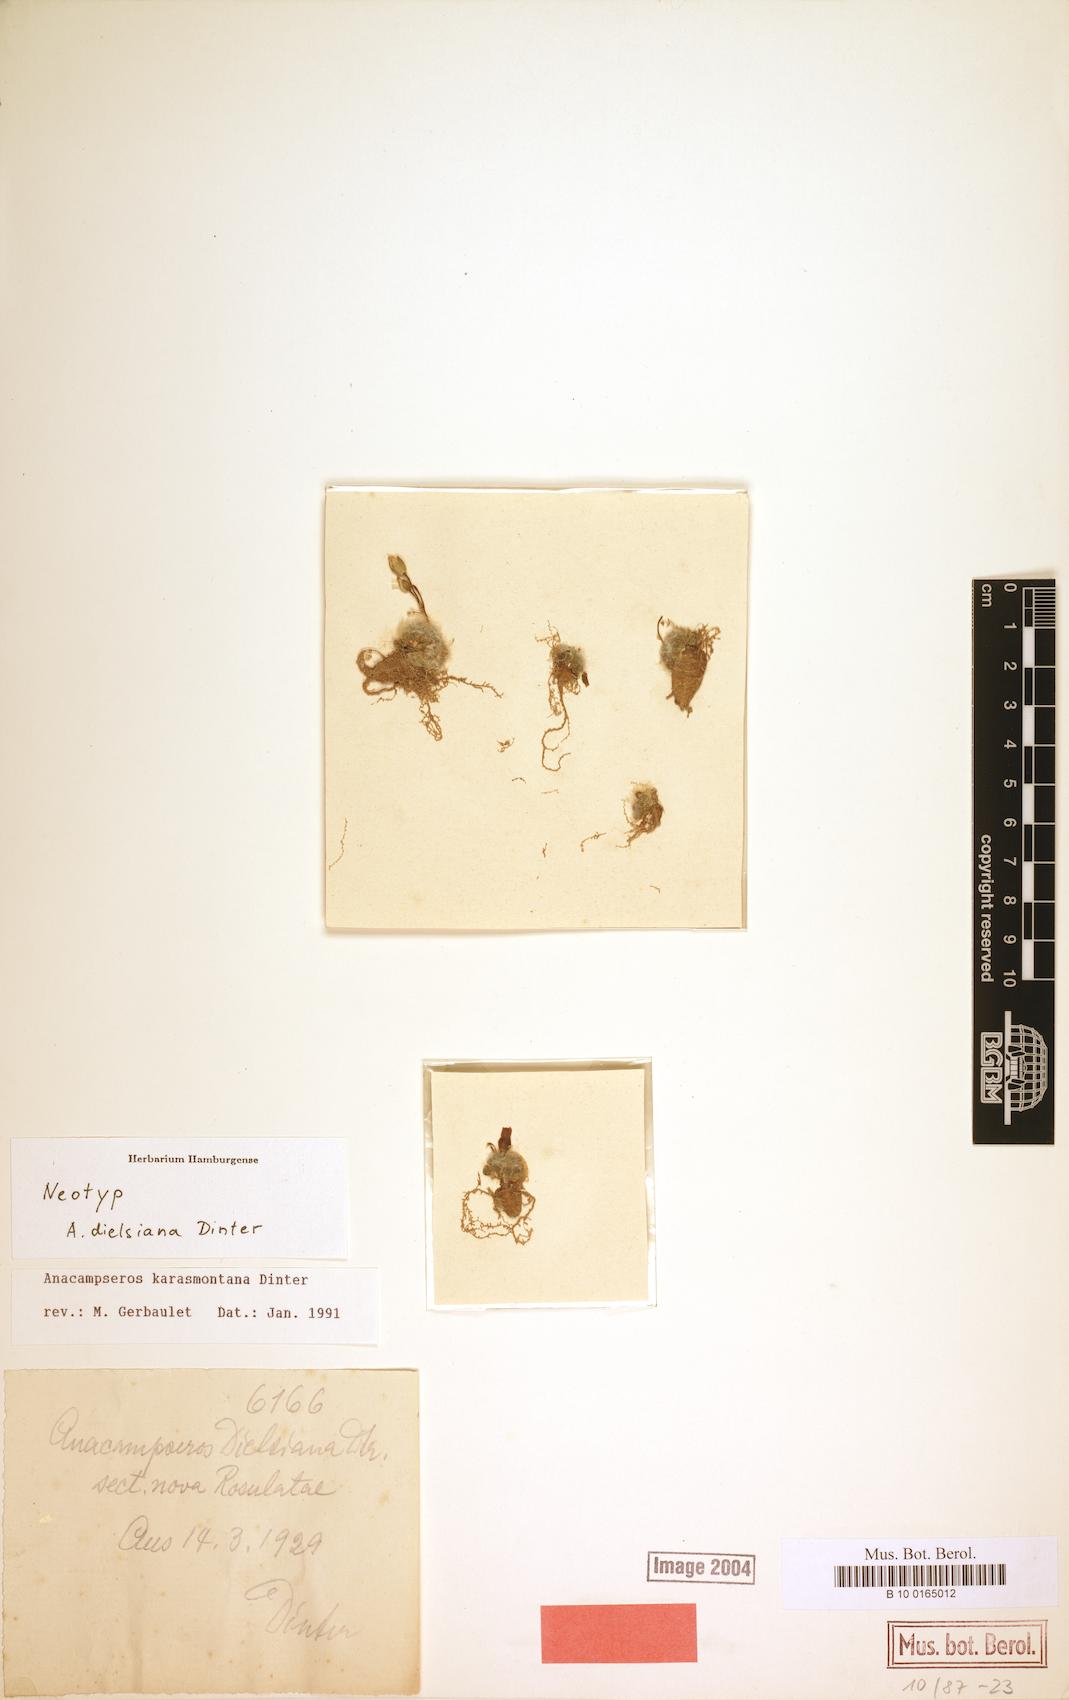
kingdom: Plantae
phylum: Tracheophyta
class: Magnoliopsida
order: Caryophyllales
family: Anacampserotaceae
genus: Anacampseros
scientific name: Anacampseros karasmontana
